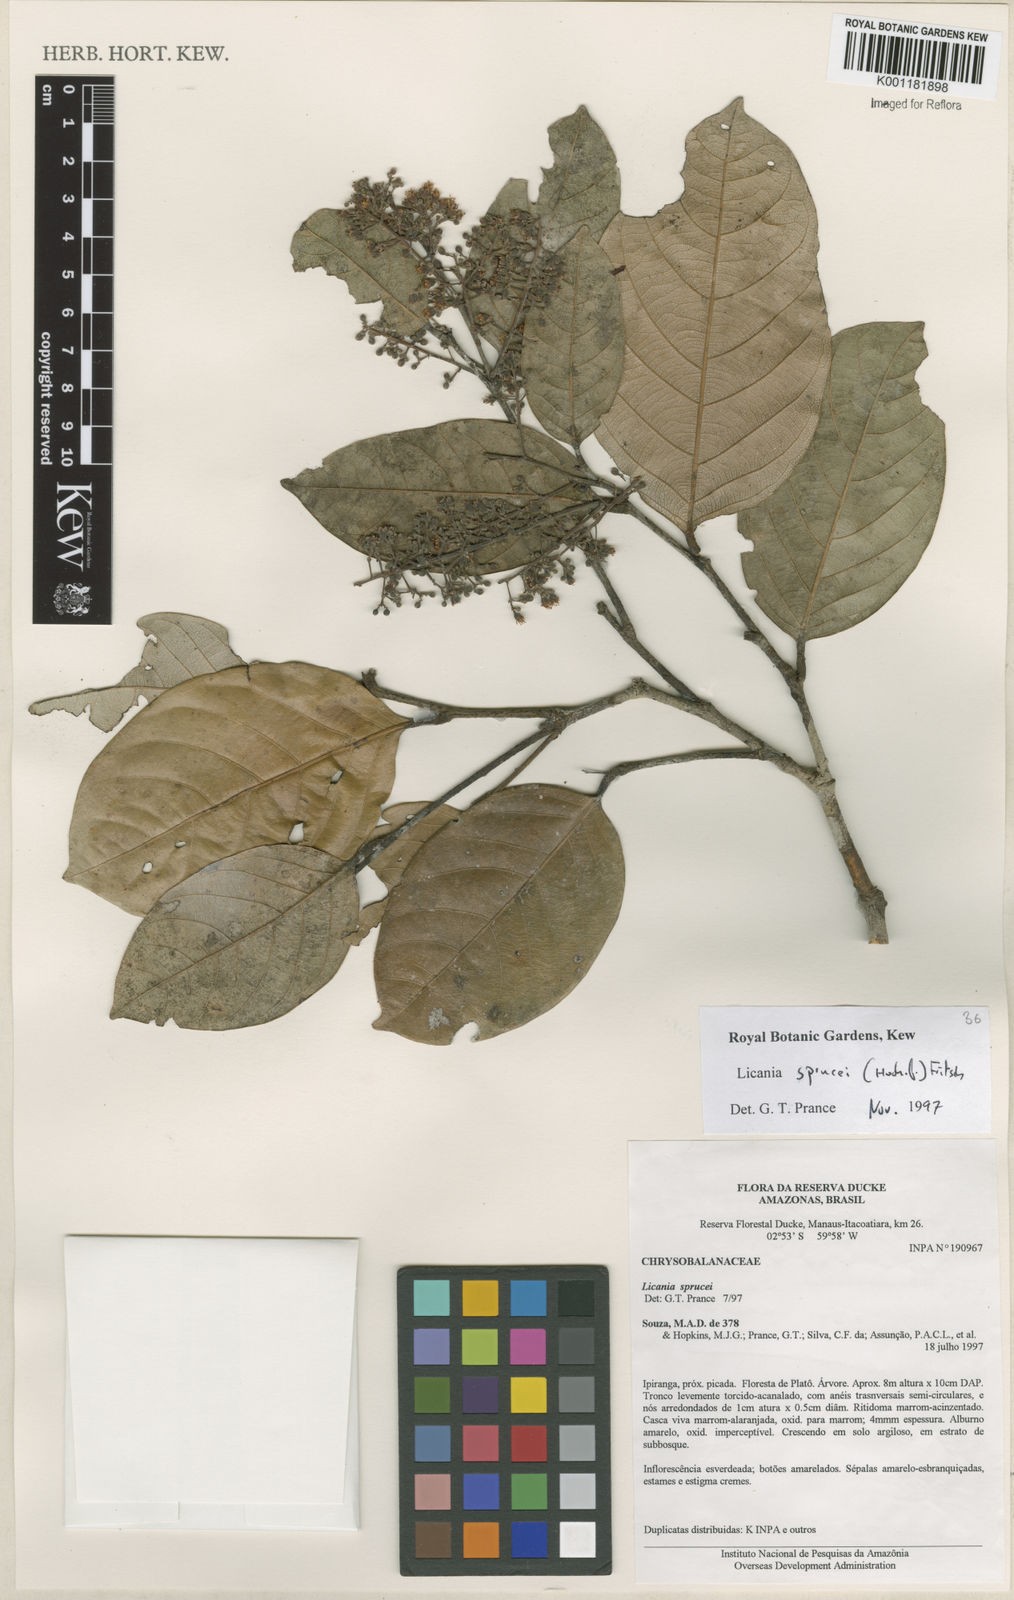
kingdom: Plantae
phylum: Tracheophyta
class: Magnoliopsida
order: Malpighiales
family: Chrysobalanaceae
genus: Leptobalanus
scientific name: Leptobalanus sprucei
